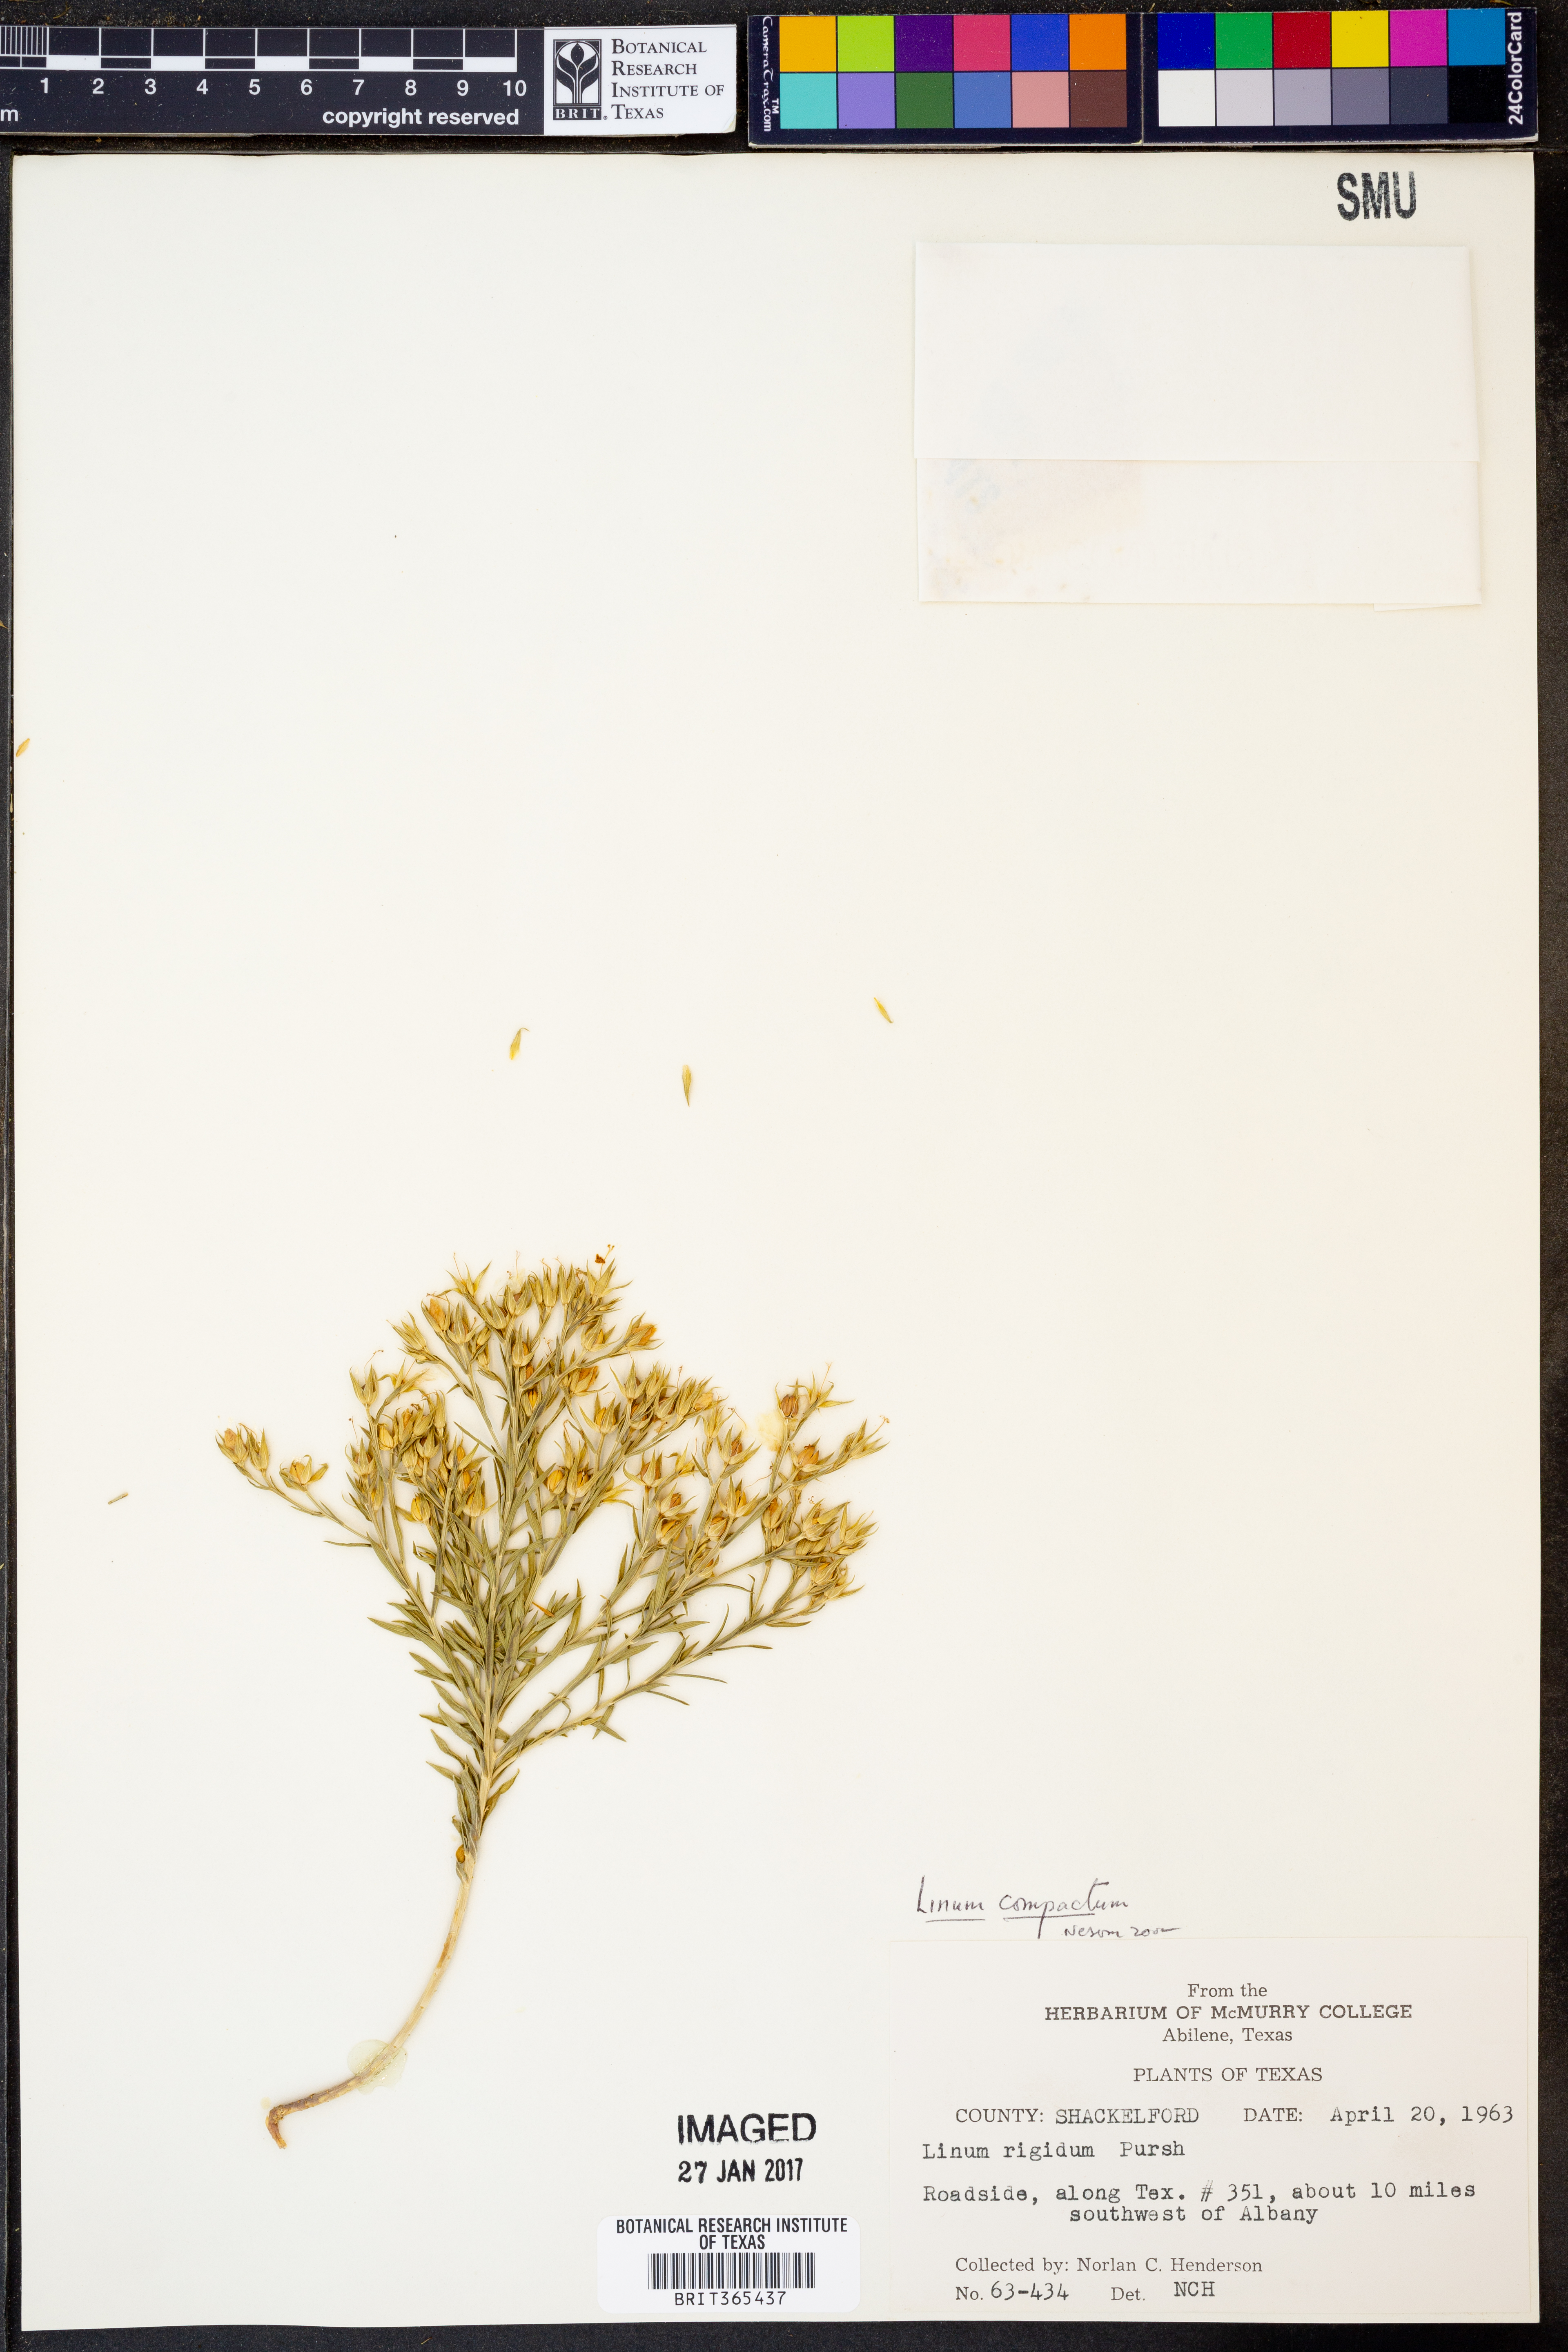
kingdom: Plantae
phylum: Tracheophyta
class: Magnoliopsida
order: Malpighiales
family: Linaceae
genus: Linum
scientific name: Linum compactum
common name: Wyoming flax
